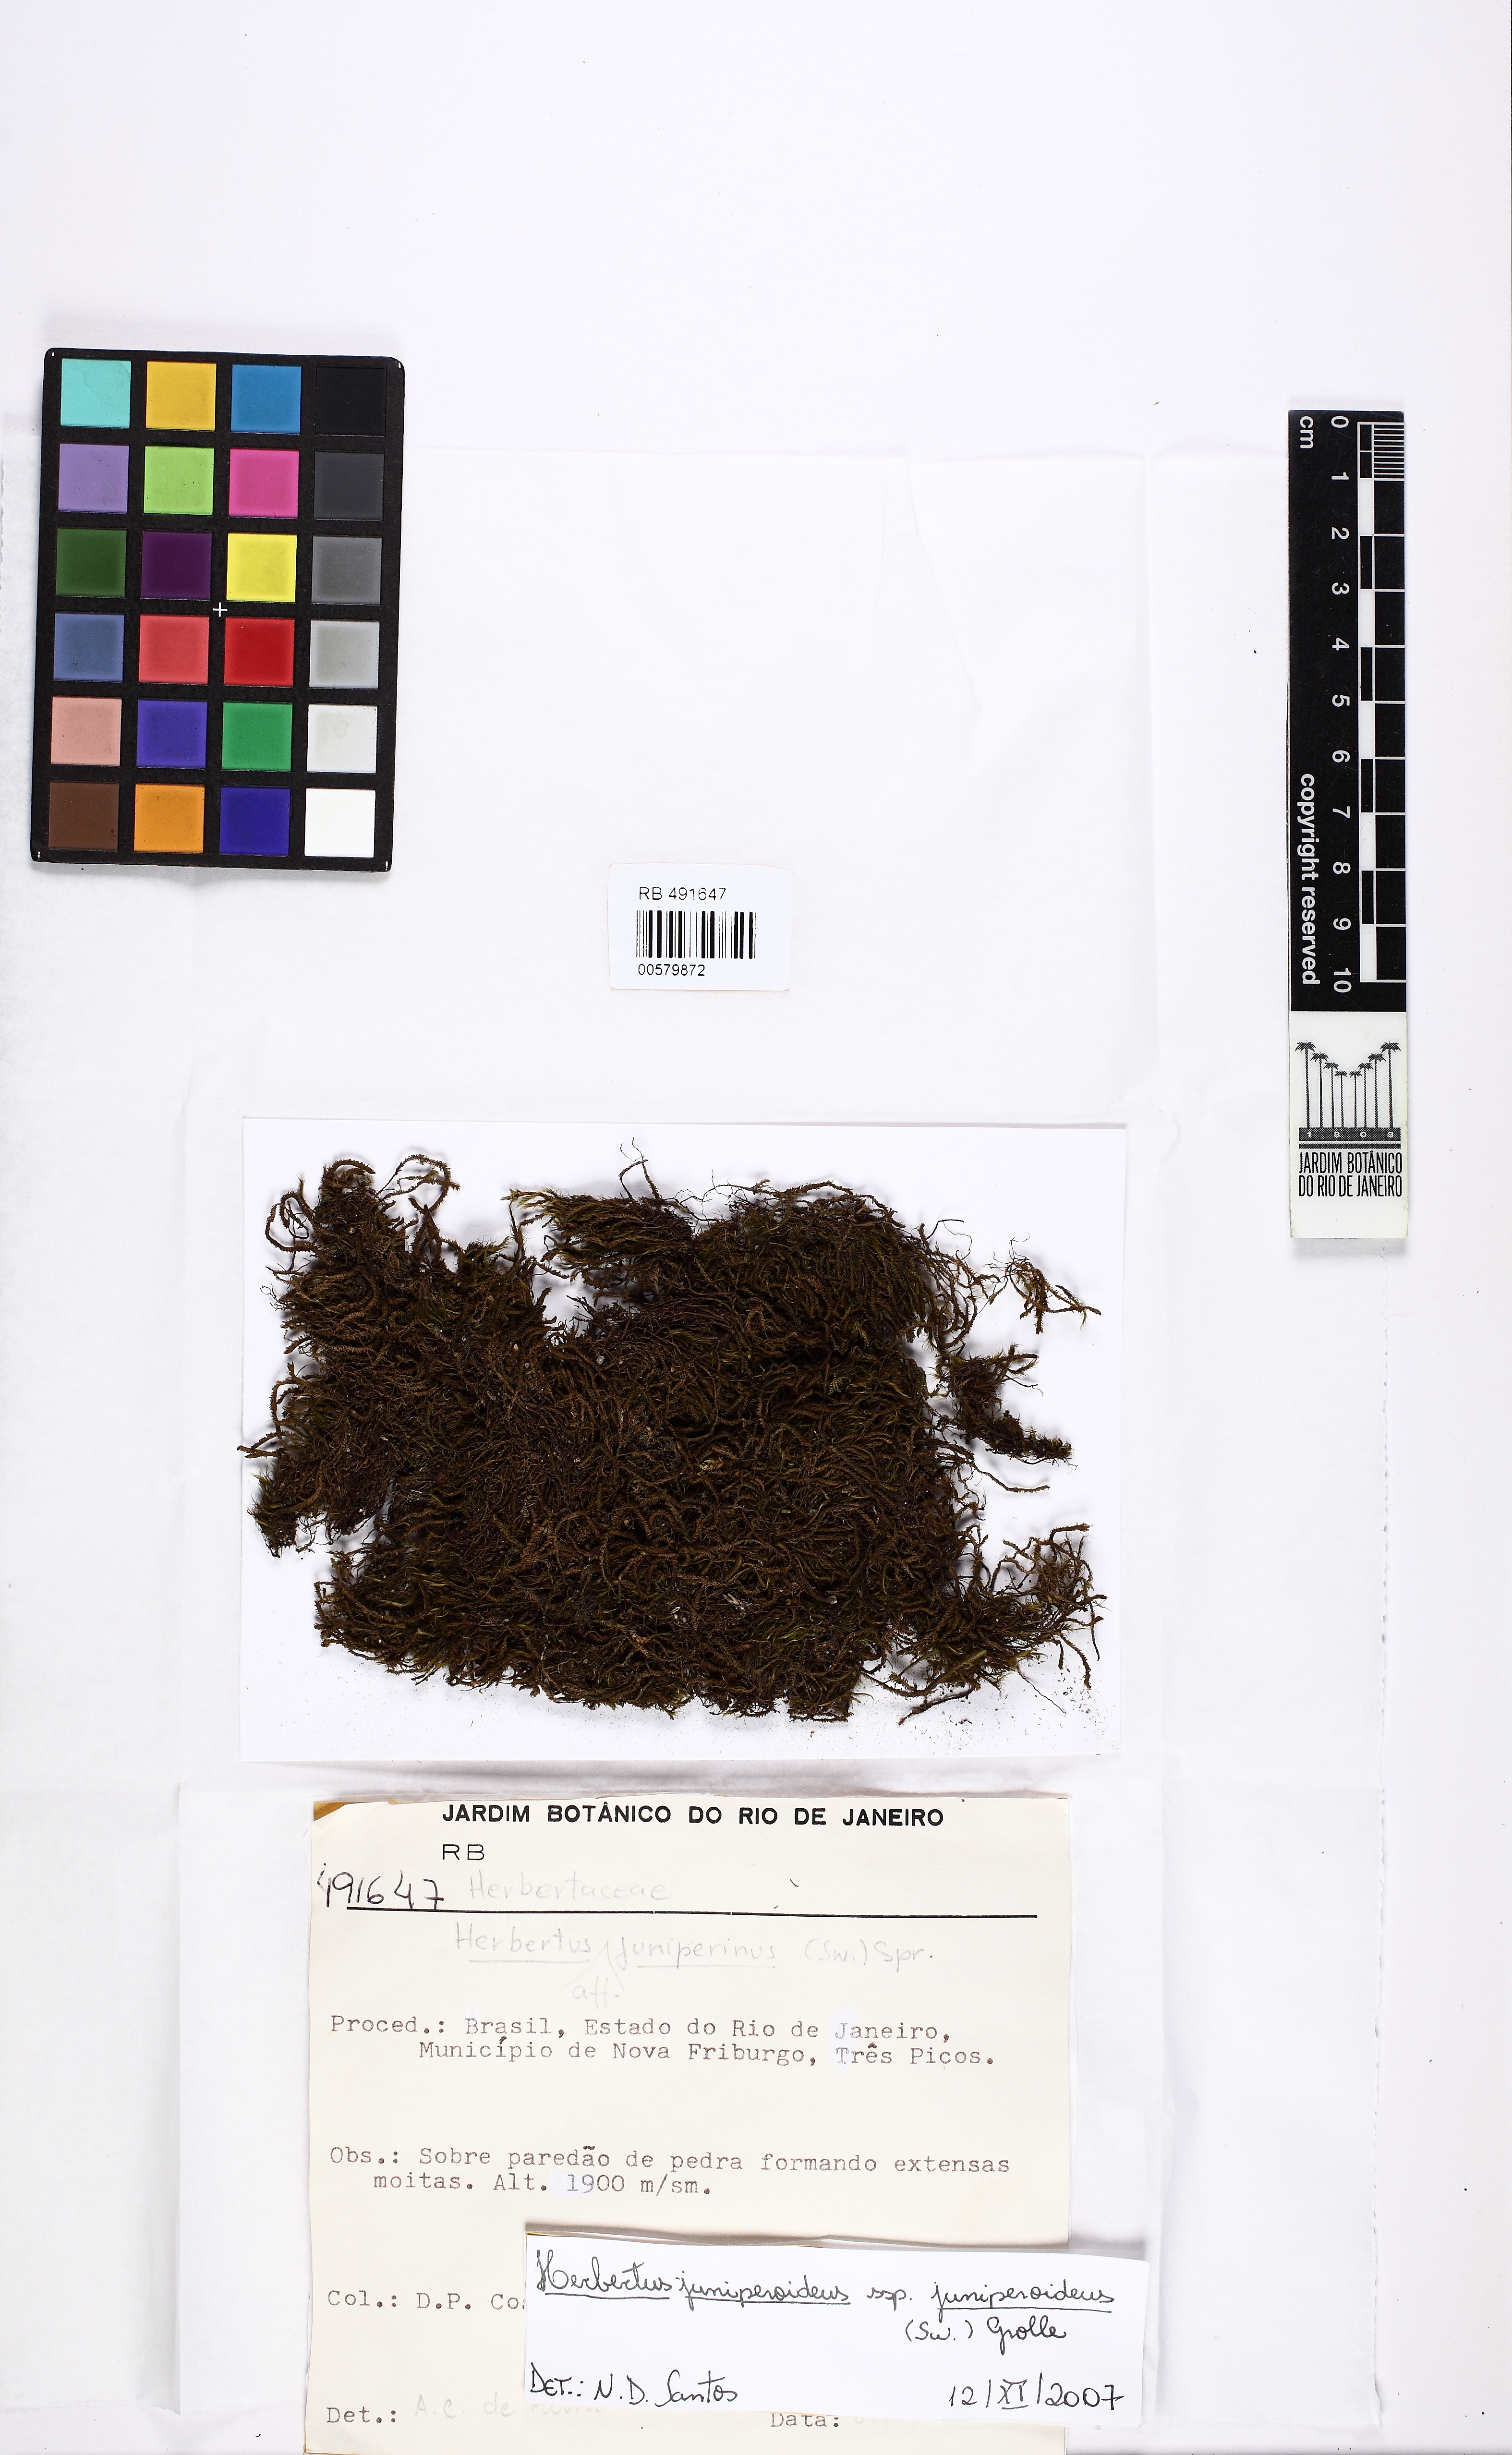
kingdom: Plantae
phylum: Marchantiophyta
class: Jungermanniopsida
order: Jungermanniales
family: Herbertaceae
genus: Herbertus
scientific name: Herbertus juniperoideus
